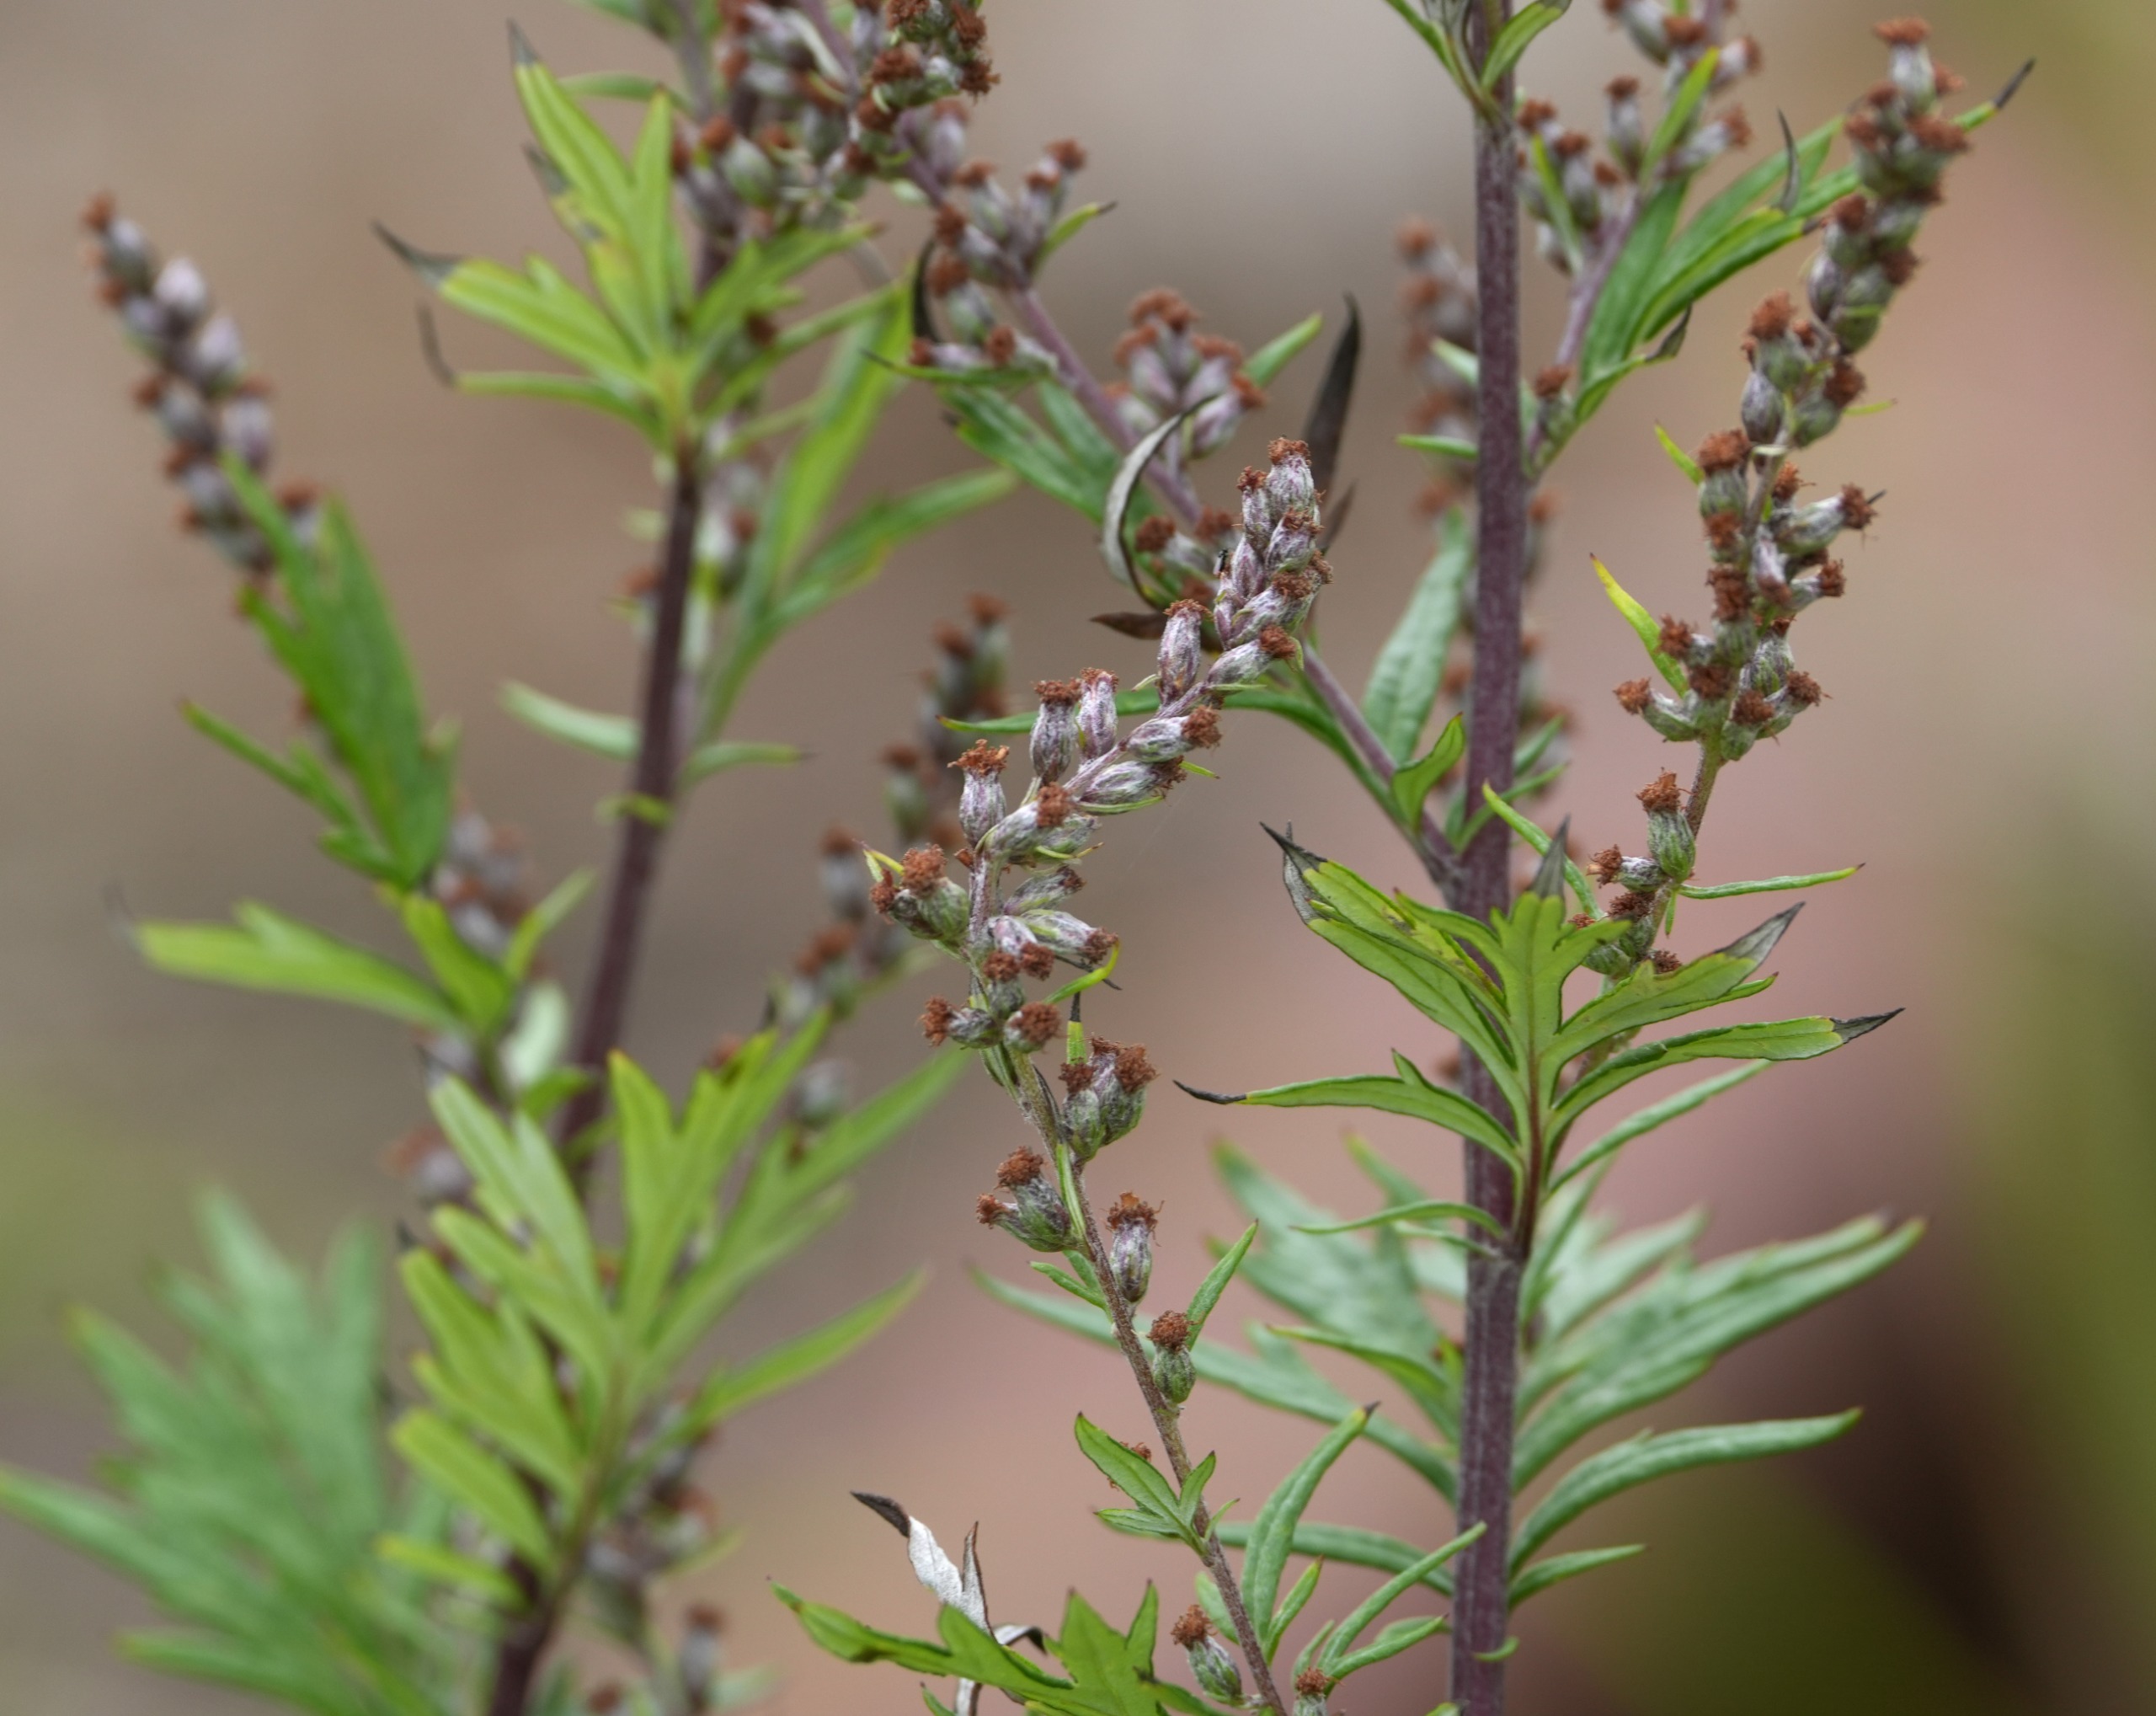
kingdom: Plantae
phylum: Tracheophyta
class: Magnoliopsida
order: Asterales
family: Asteraceae
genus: Artemisia
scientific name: Artemisia vulgaris
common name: Grå-bynke
